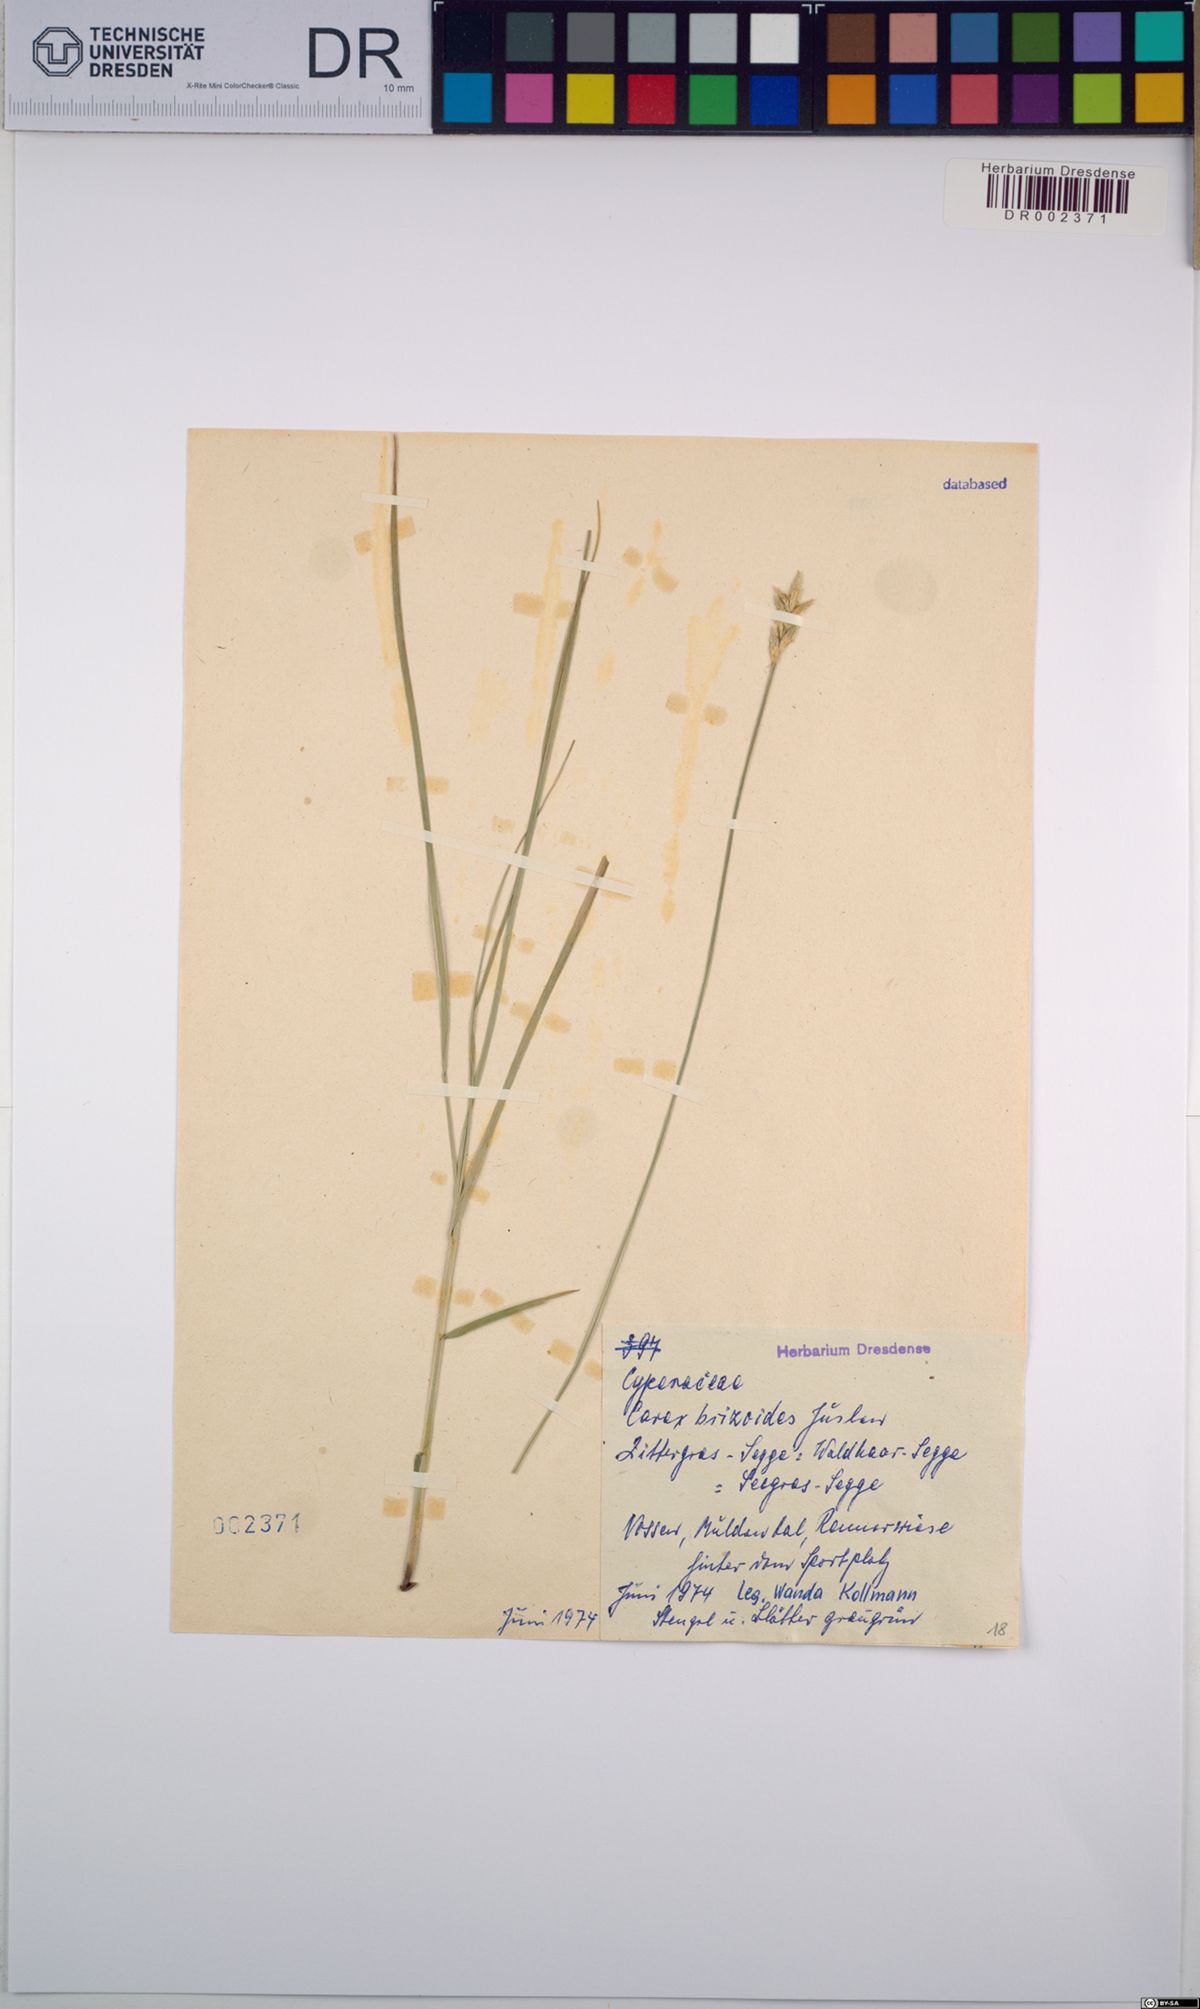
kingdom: Plantae
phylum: Tracheophyta
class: Liliopsida
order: Poales
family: Cyperaceae
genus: Carex
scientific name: Carex brizoides
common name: Quaking-grass sedge
